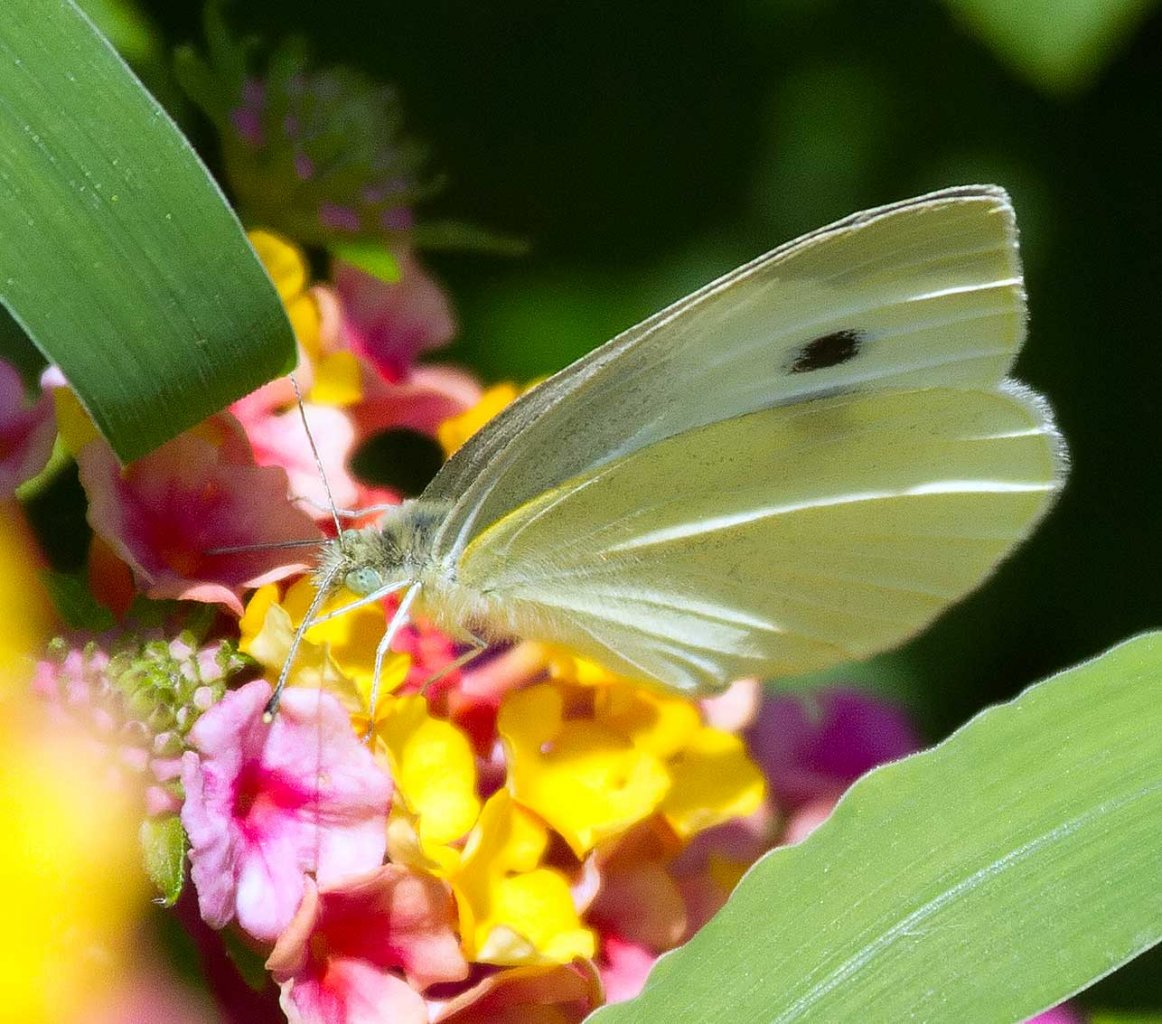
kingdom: Animalia
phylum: Arthropoda
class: Insecta
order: Lepidoptera
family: Pieridae
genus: Pieris
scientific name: Pieris rapae
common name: Cabbage White
